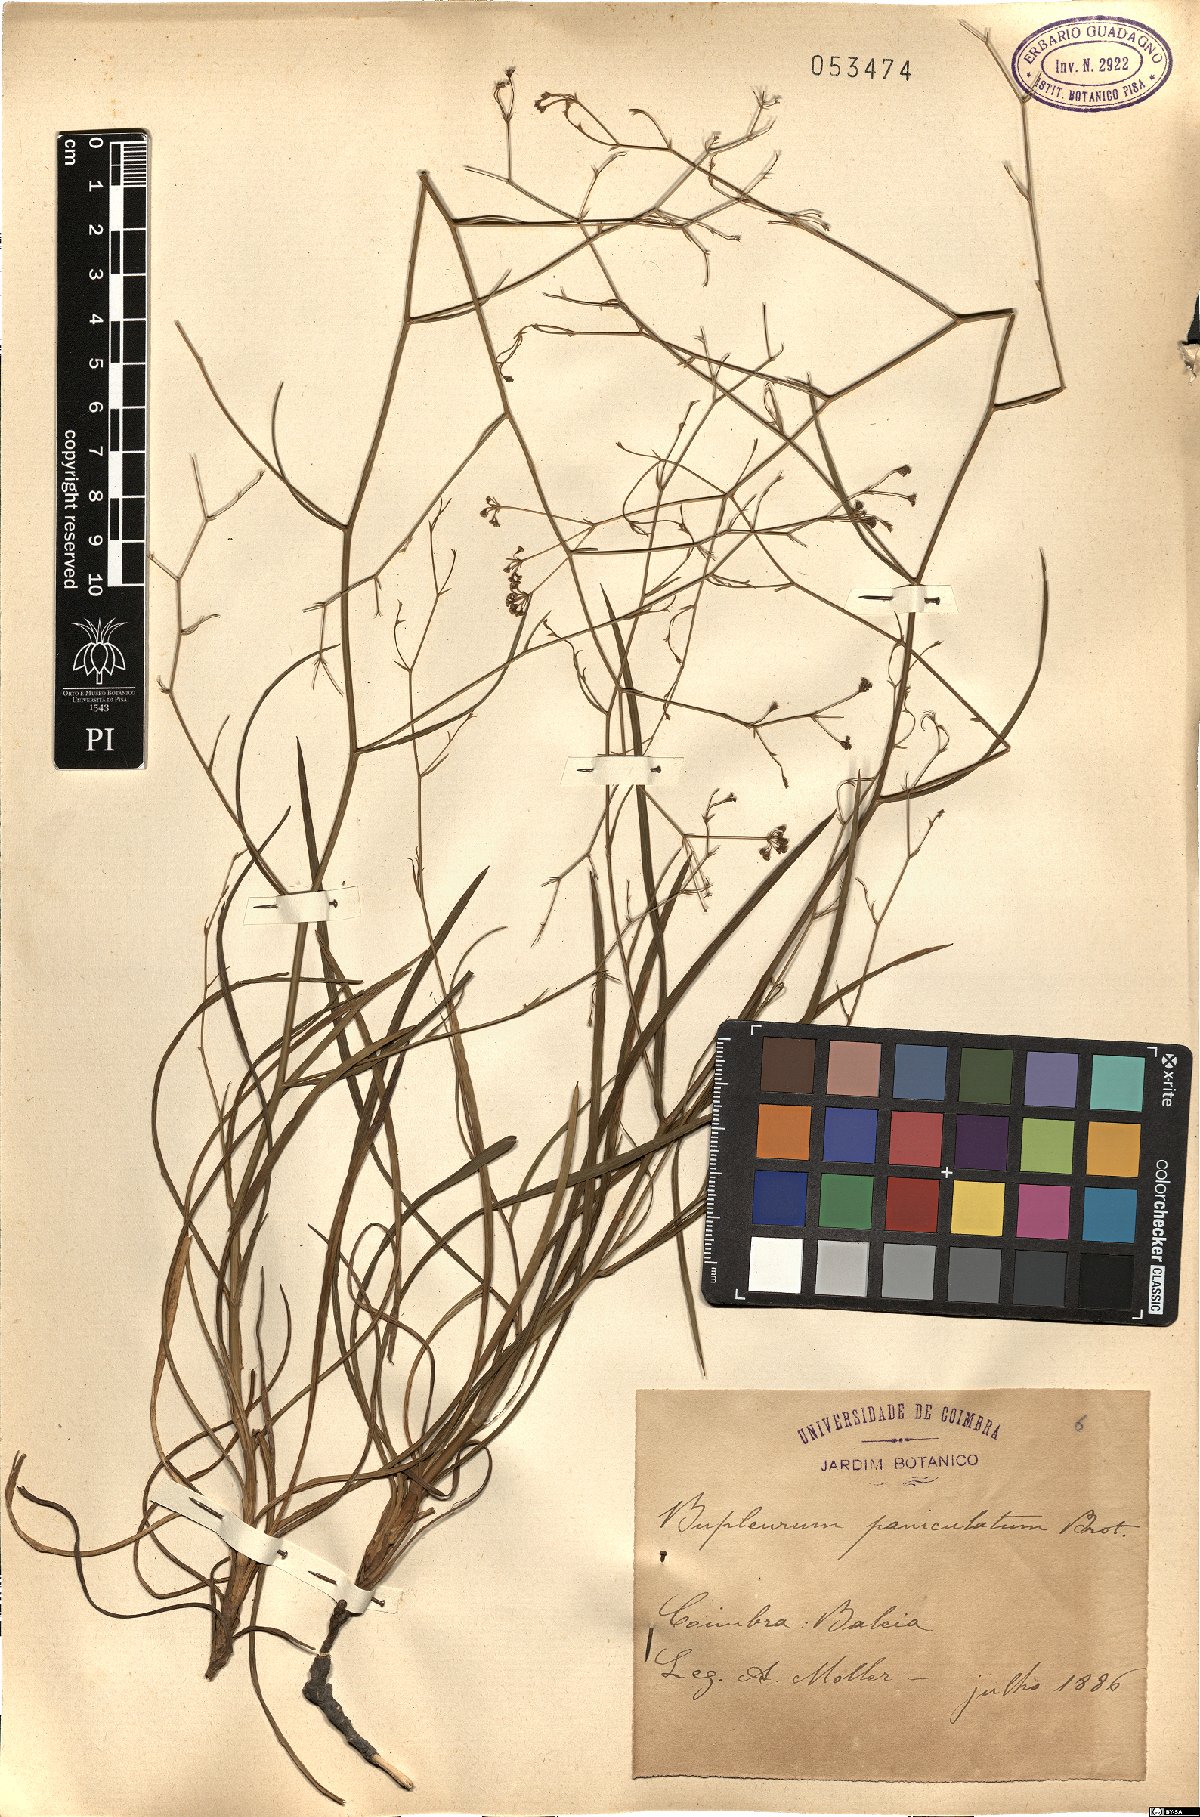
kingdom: Plantae
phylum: Tracheophyta
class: Magnoliopsida
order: Apiales
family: Apiaceae
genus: Bupleurum
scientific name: Bupleurum rigidum
